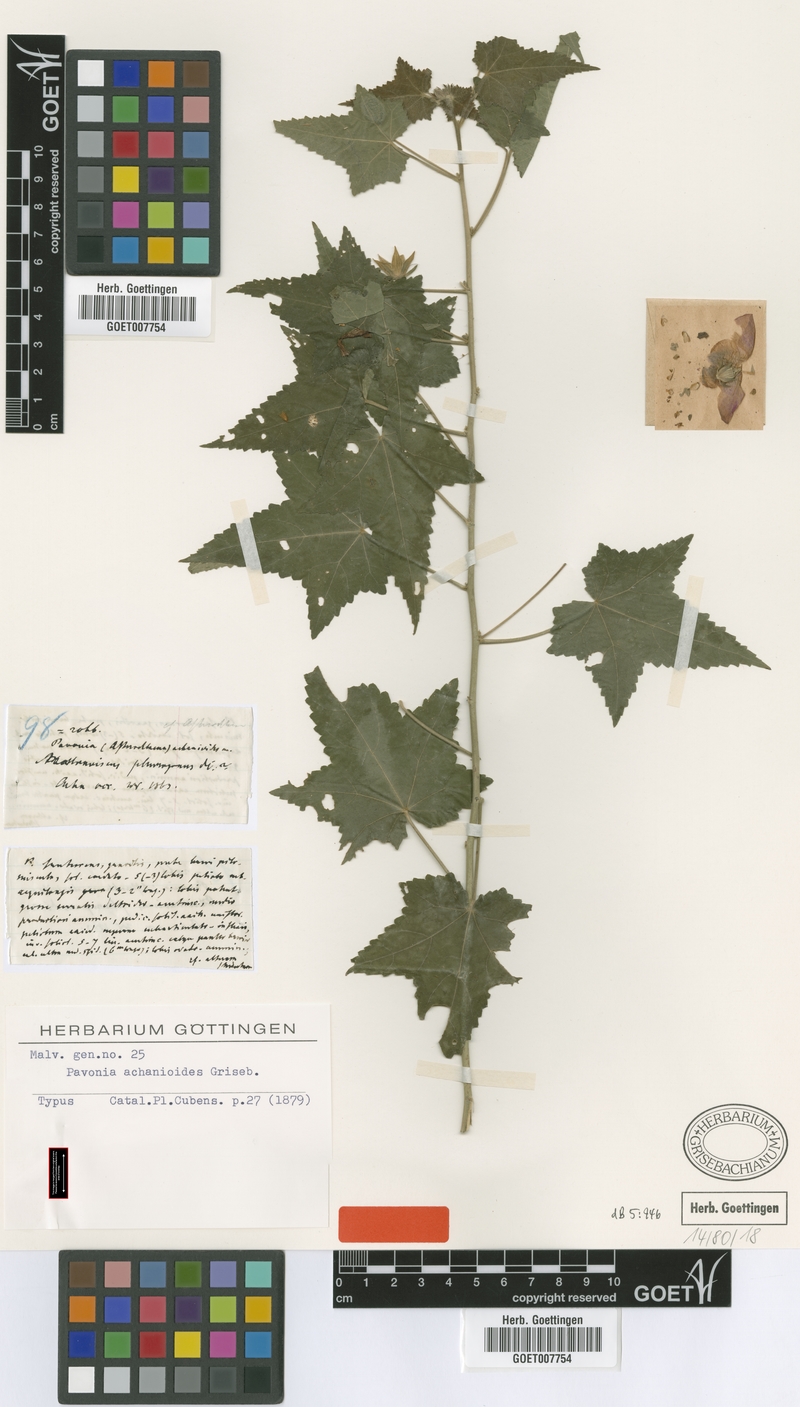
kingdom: Plantae
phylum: Tracheophyta
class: Magnoliopsida
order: Malvales
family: Malvaceae
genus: Pavonia
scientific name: Pavonia achanioides
